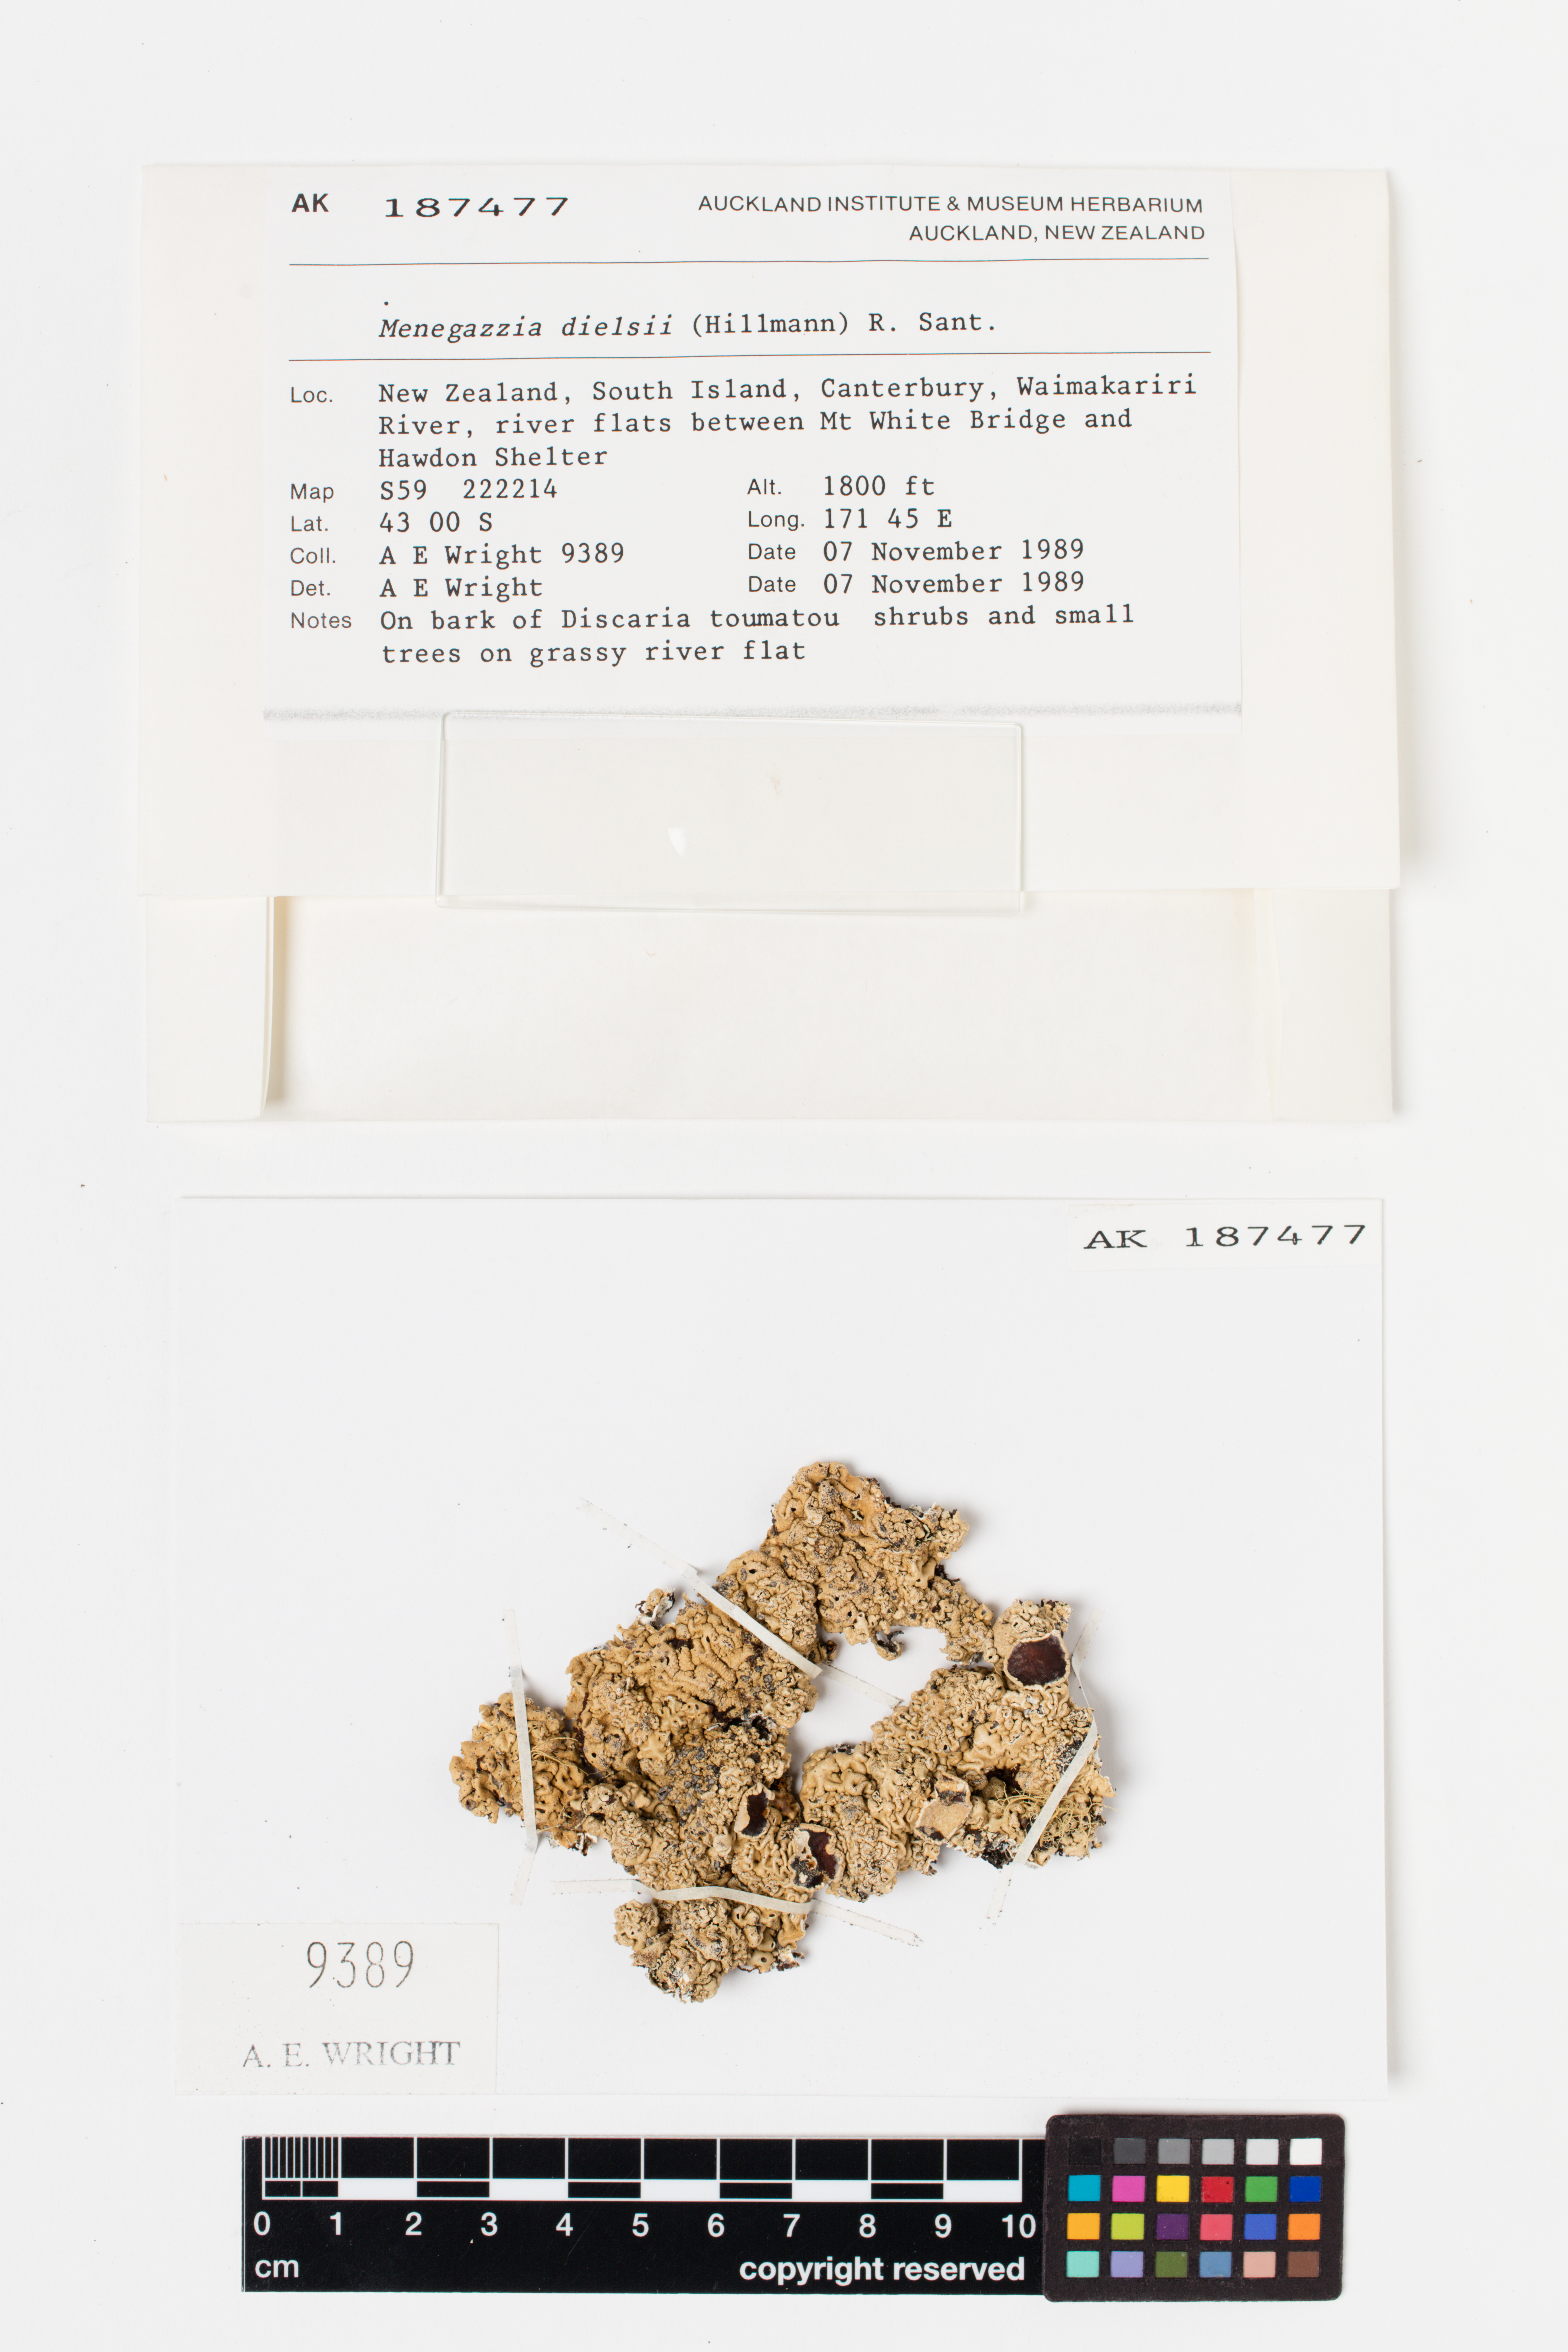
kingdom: Fungi
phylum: Ascomycota
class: Lecanoromycetes
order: Lecanorales
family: Parmeliaceae
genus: Menegazzia
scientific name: Menegazzia dielsii
